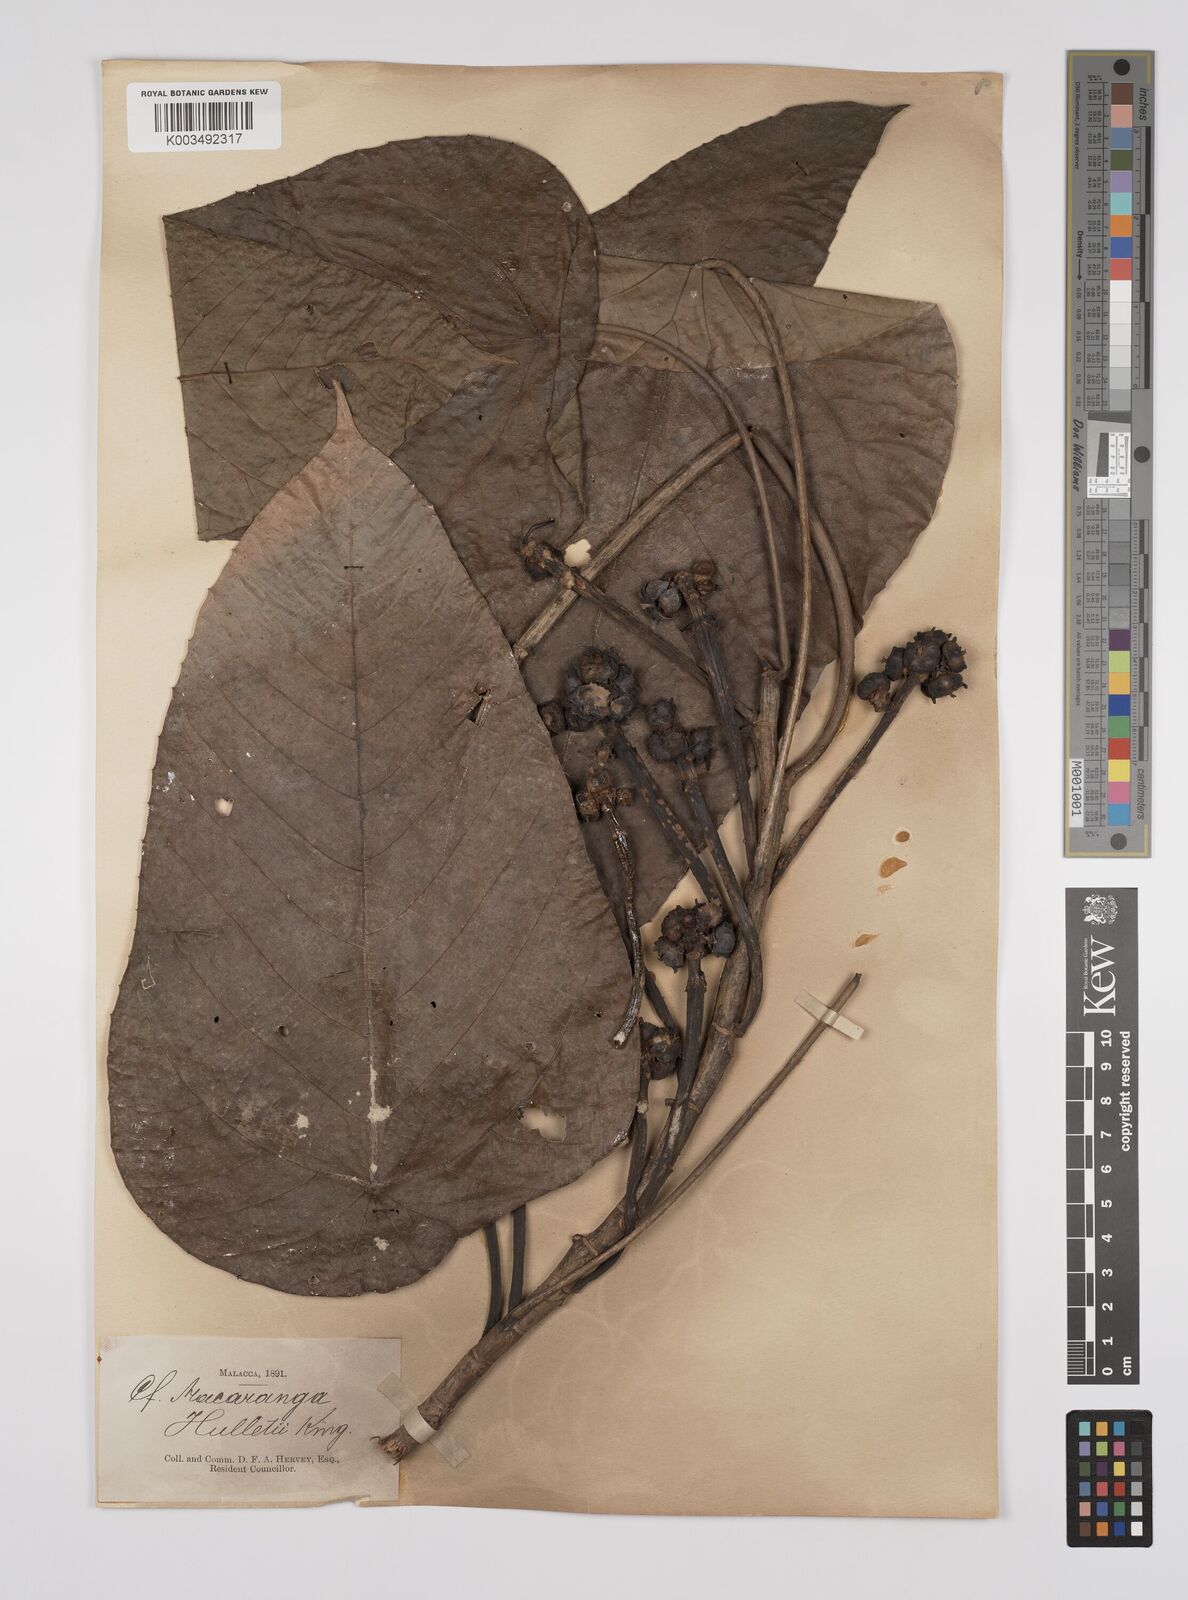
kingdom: Plantae
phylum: Tracheophyta
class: Magnoliopsida
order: Malpighiales
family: Euphorbiaceae
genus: Macaranga
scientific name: Macaranga hullettii
